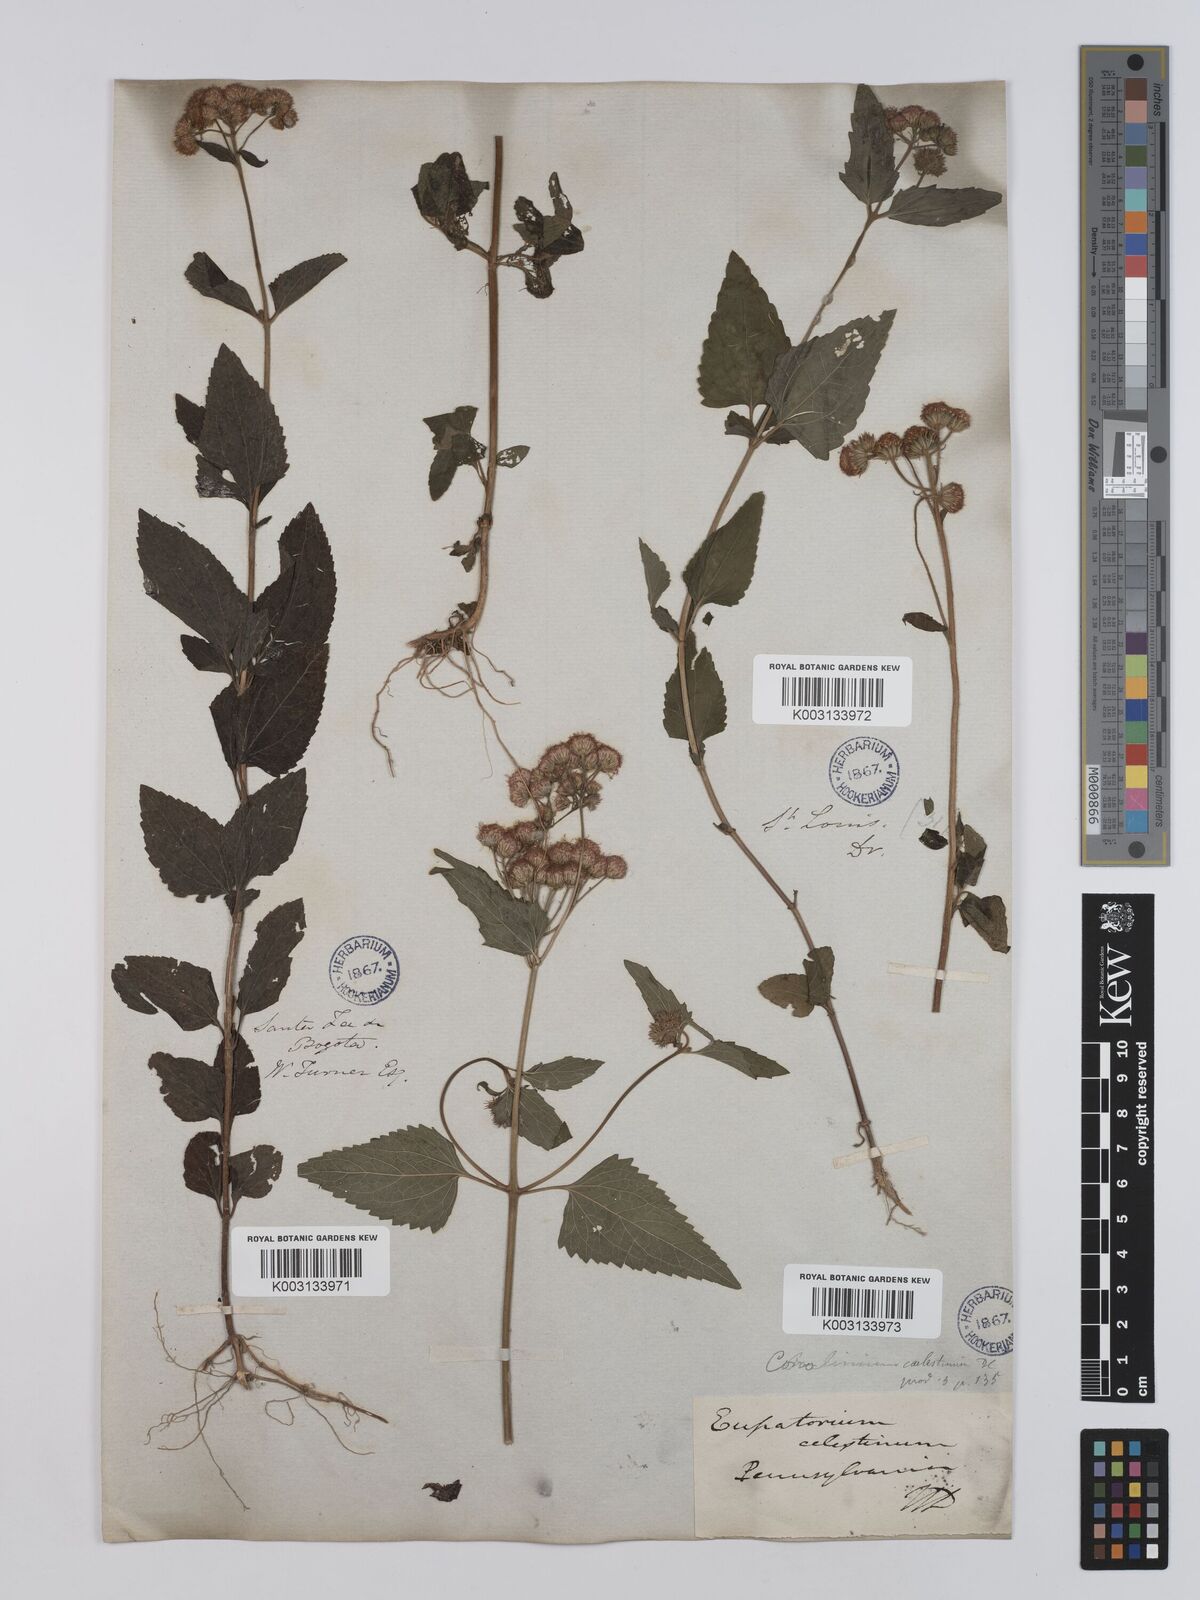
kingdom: Plantae
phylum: Tracheophyta
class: Magnoliopsida
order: Asterales
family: Asteraceae
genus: Conoclinium
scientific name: Conoclinium coelestinum
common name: Blue mistflower
